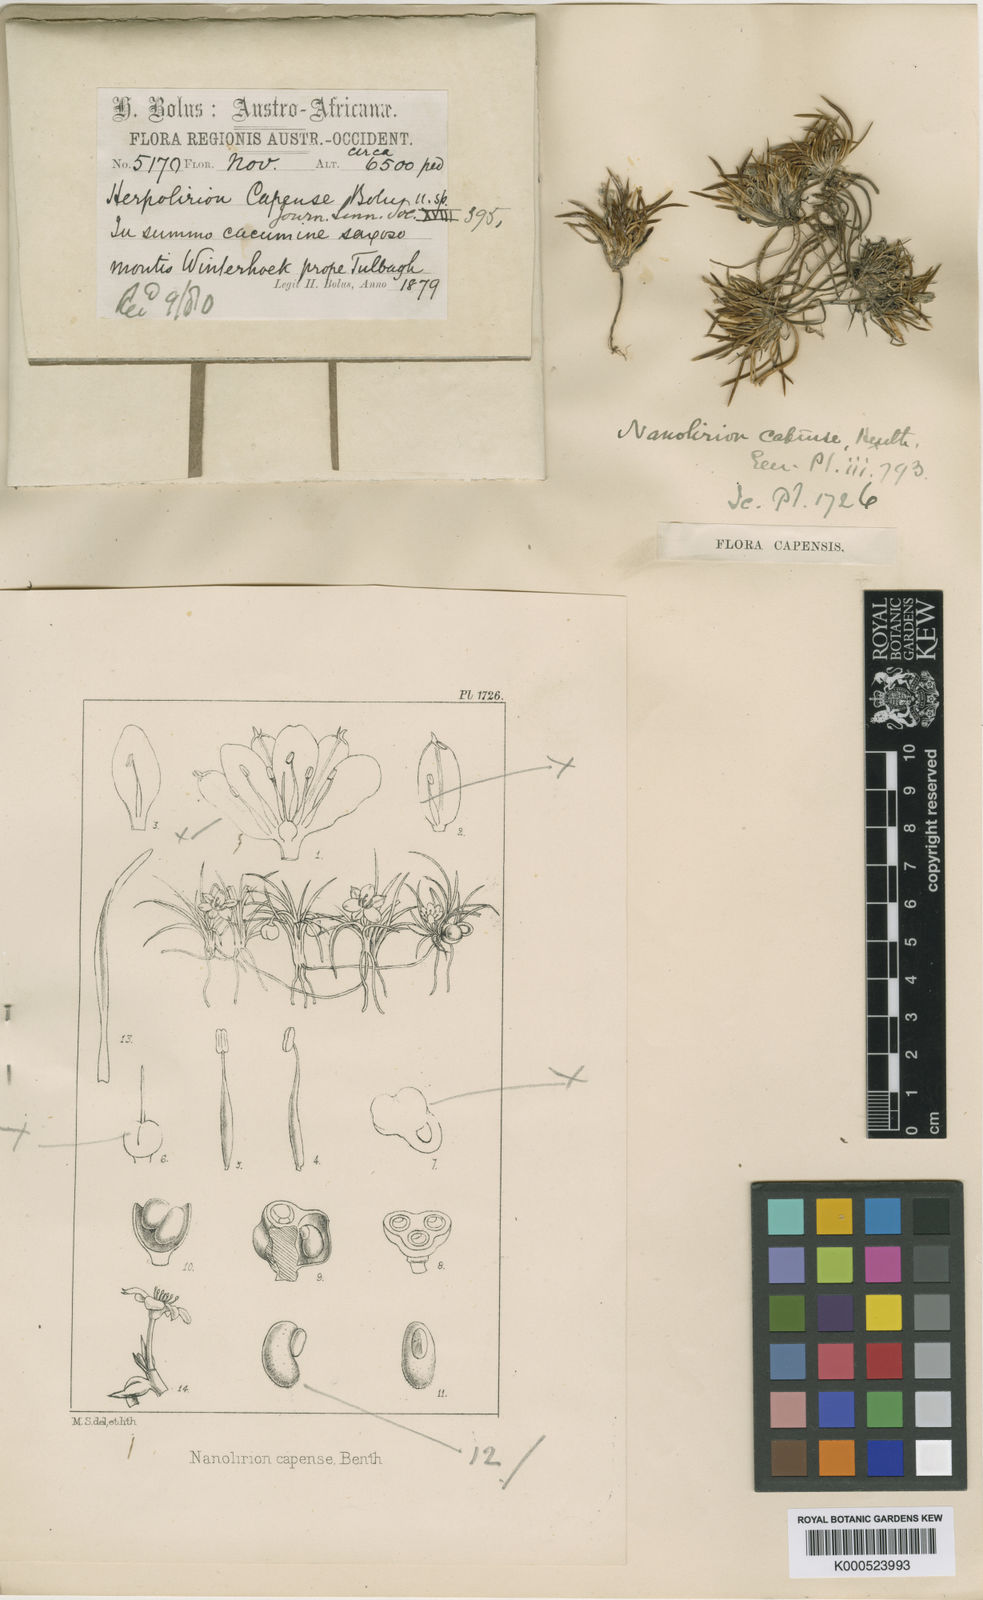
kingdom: Plantae
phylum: Tracheophyta
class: Liliopsida
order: Asparagales
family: Asphodelaceae
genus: Caesia
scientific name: Caesia capensis
